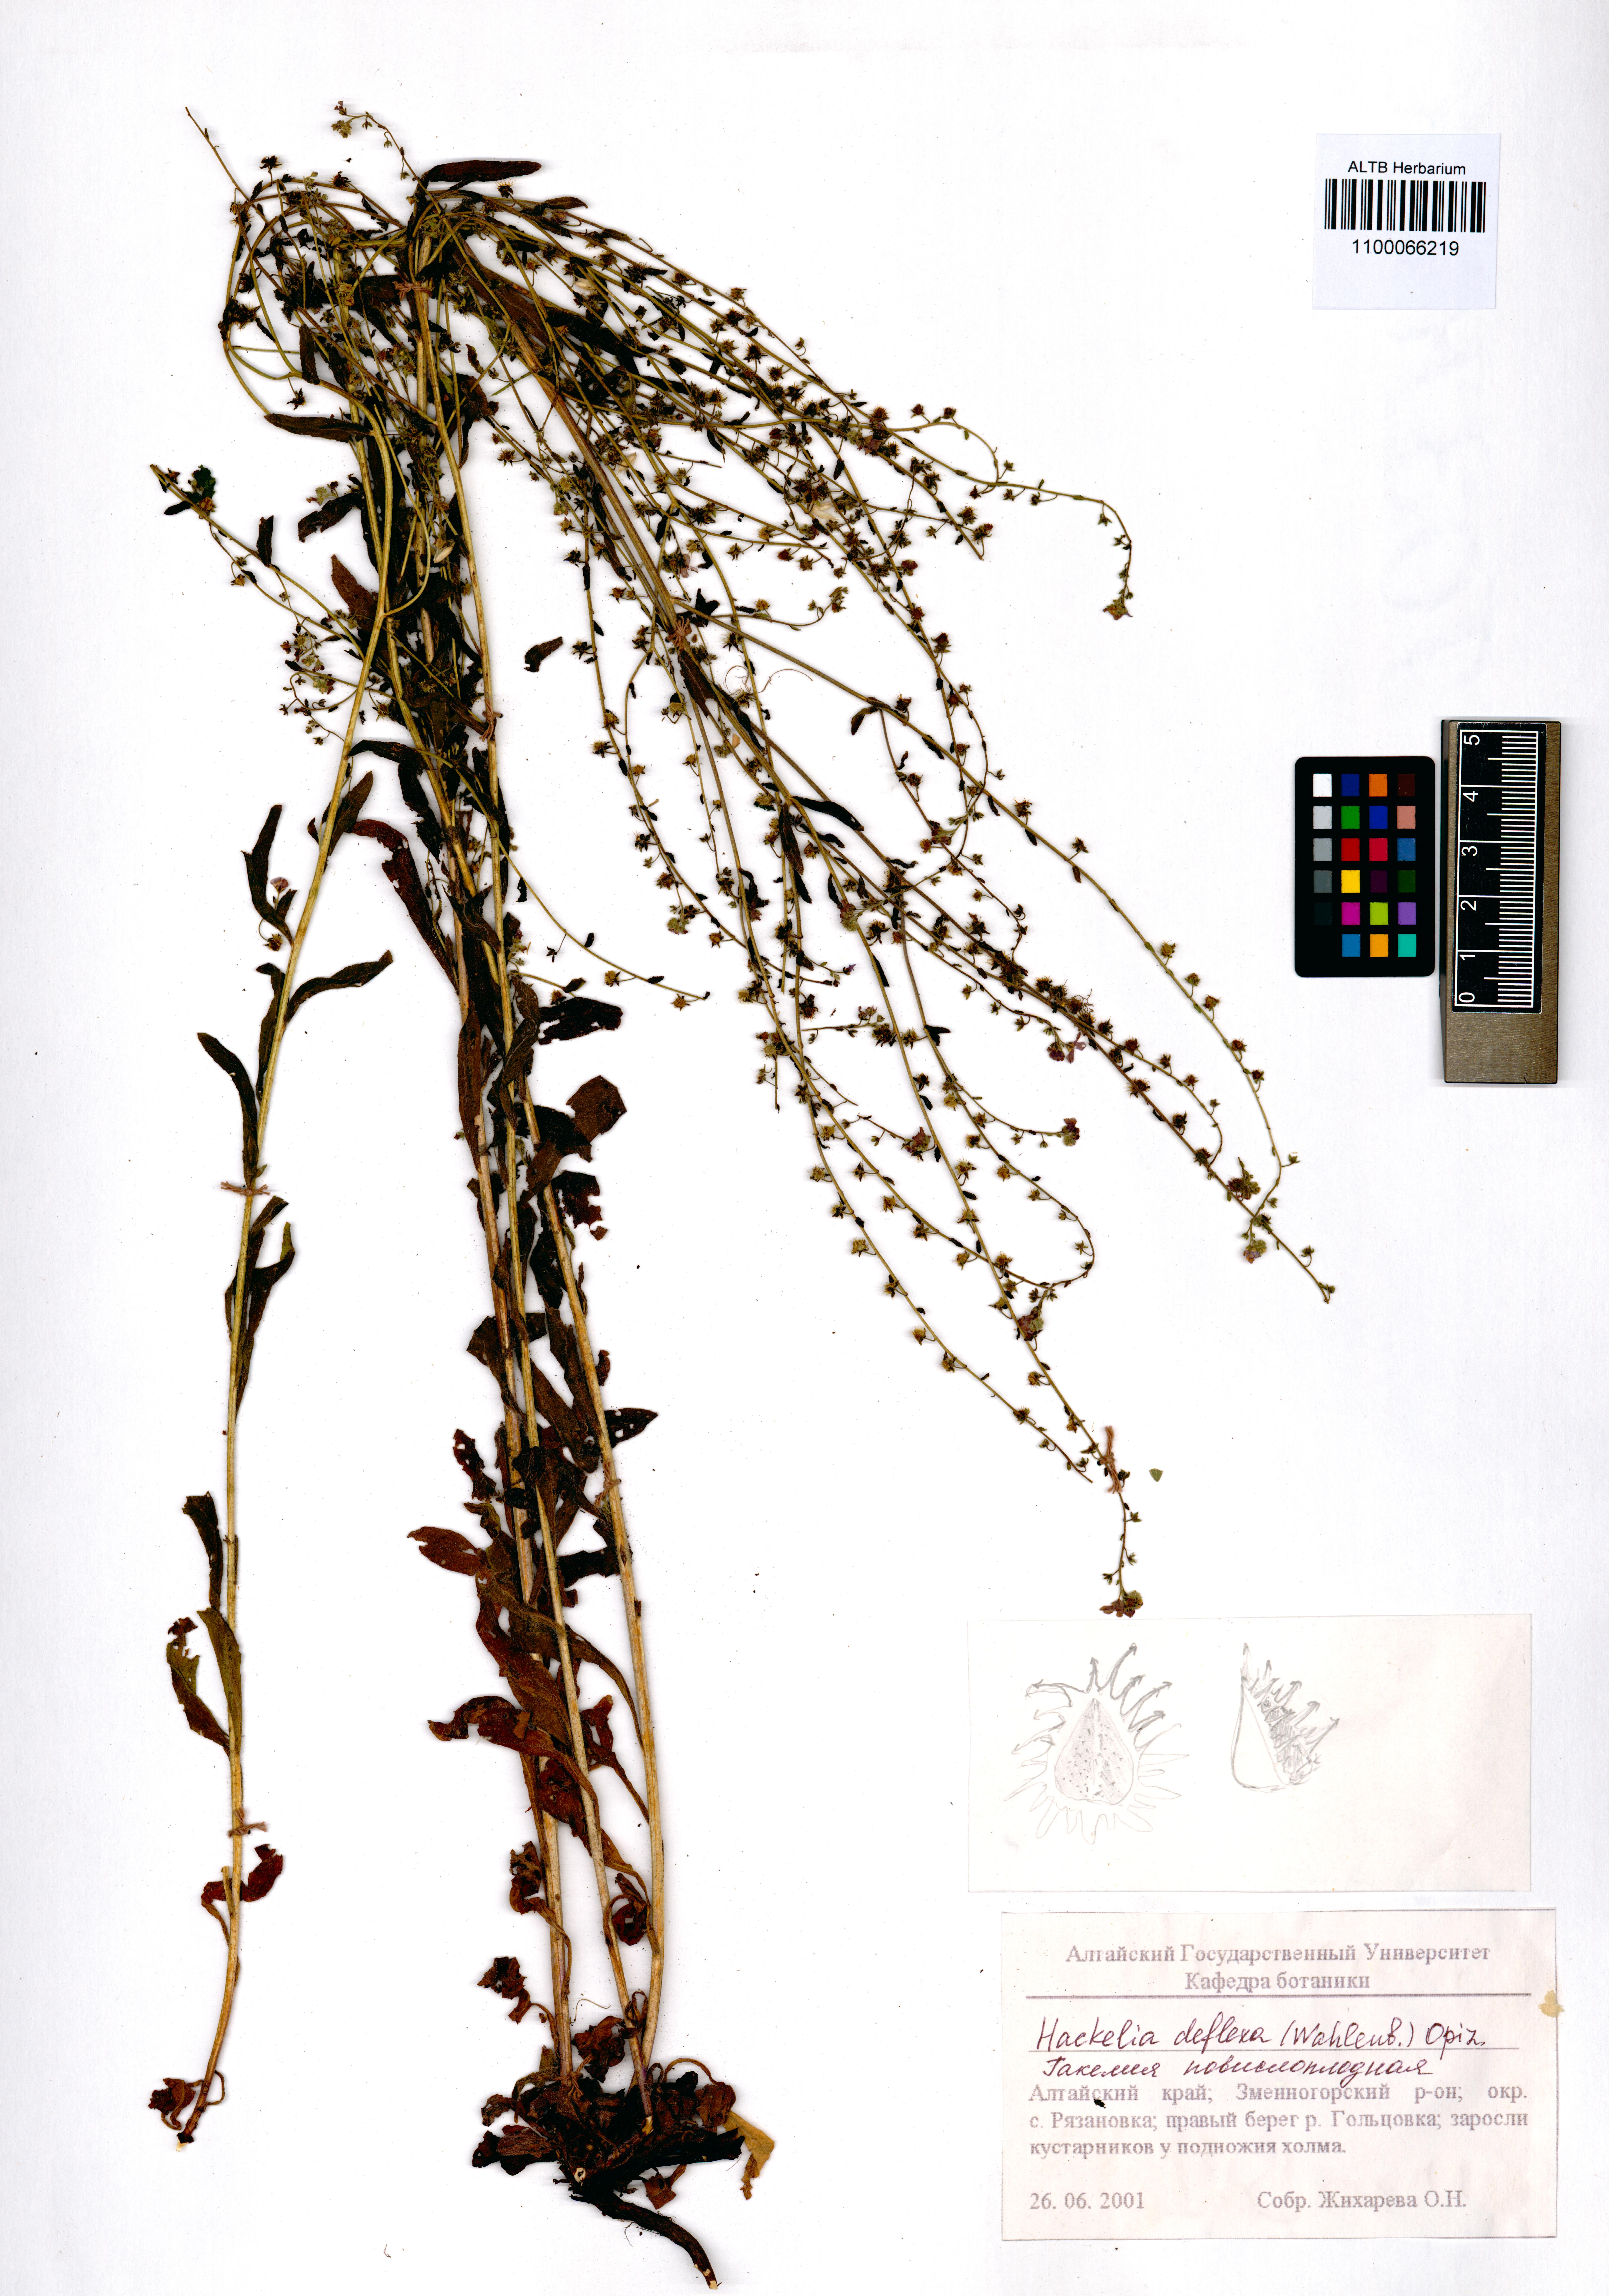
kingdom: Plantae
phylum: Tracheophyta
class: Magnoliopsida
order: Boraginales
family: Boraginaceae
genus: Hackelia
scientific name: Hackelia deflexa
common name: Nodding stickseed
